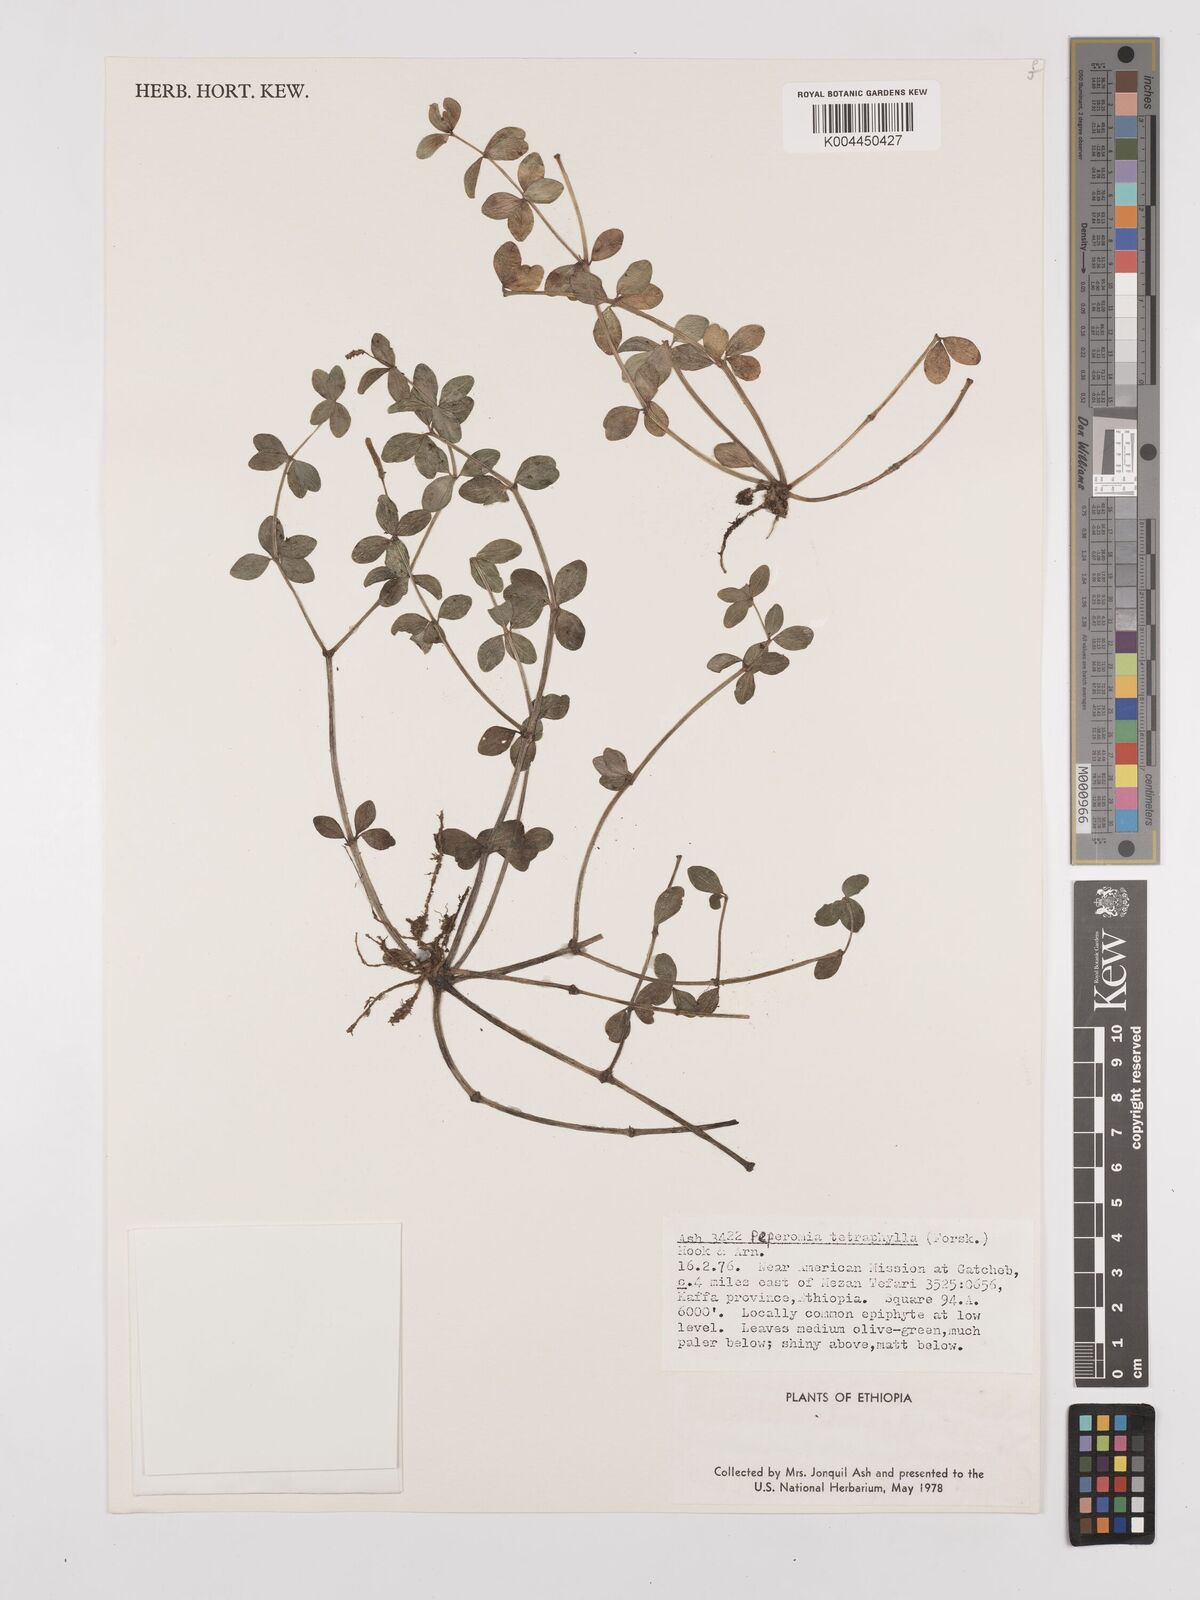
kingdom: Plantae
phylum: Tracheophyta
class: Magnoliopsida
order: Piperales
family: Piperaceae
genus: Peperomia
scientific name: Peperomia tetraphylla
